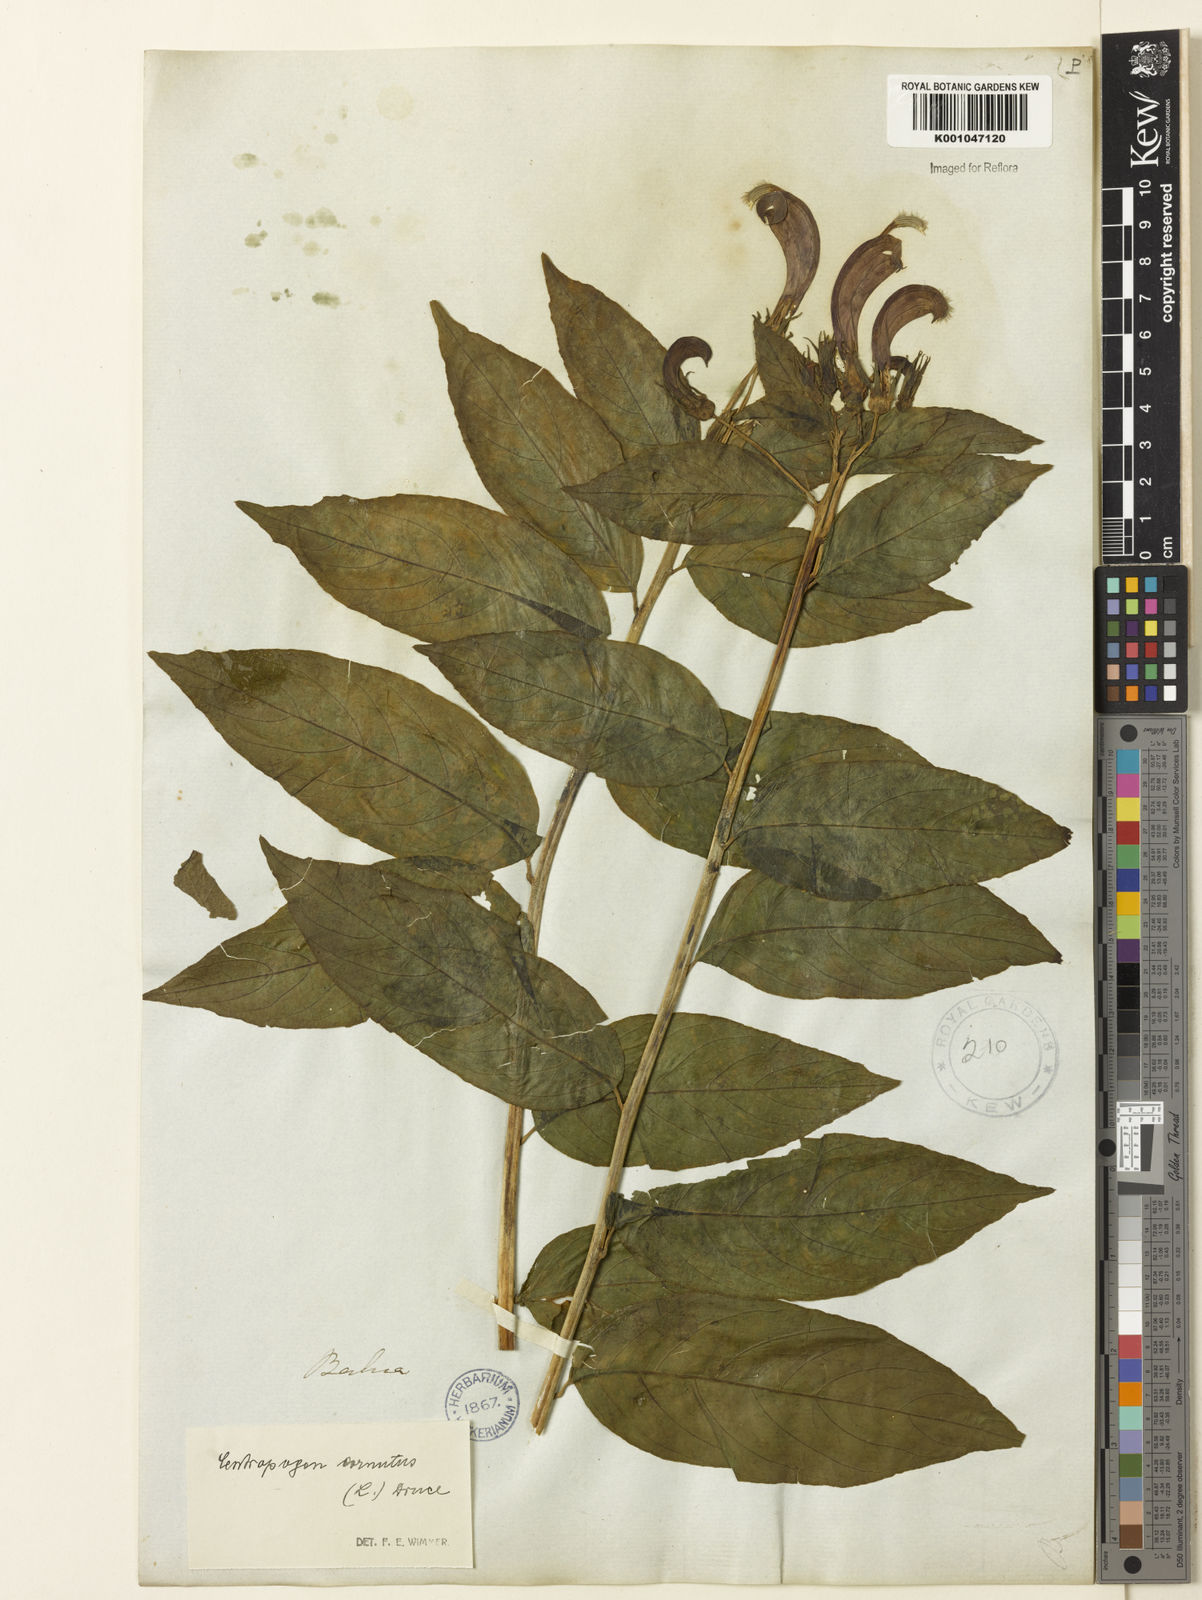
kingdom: Plantae
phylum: Tracheophyta
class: Magnoliopsida
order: Asterales
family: Campanulaceae
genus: Centropogon
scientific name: Centropogon cornutus
